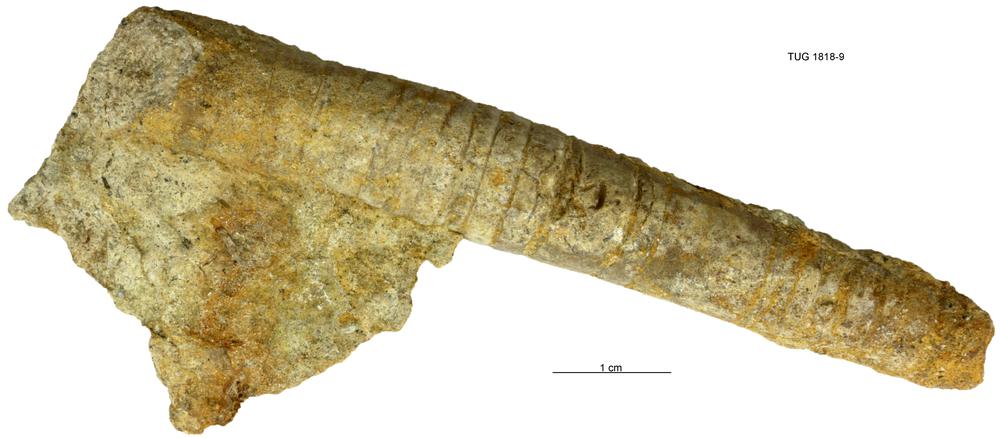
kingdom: Animalia
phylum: Mollusca
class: Cephalopoda
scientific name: Cephalopoda
